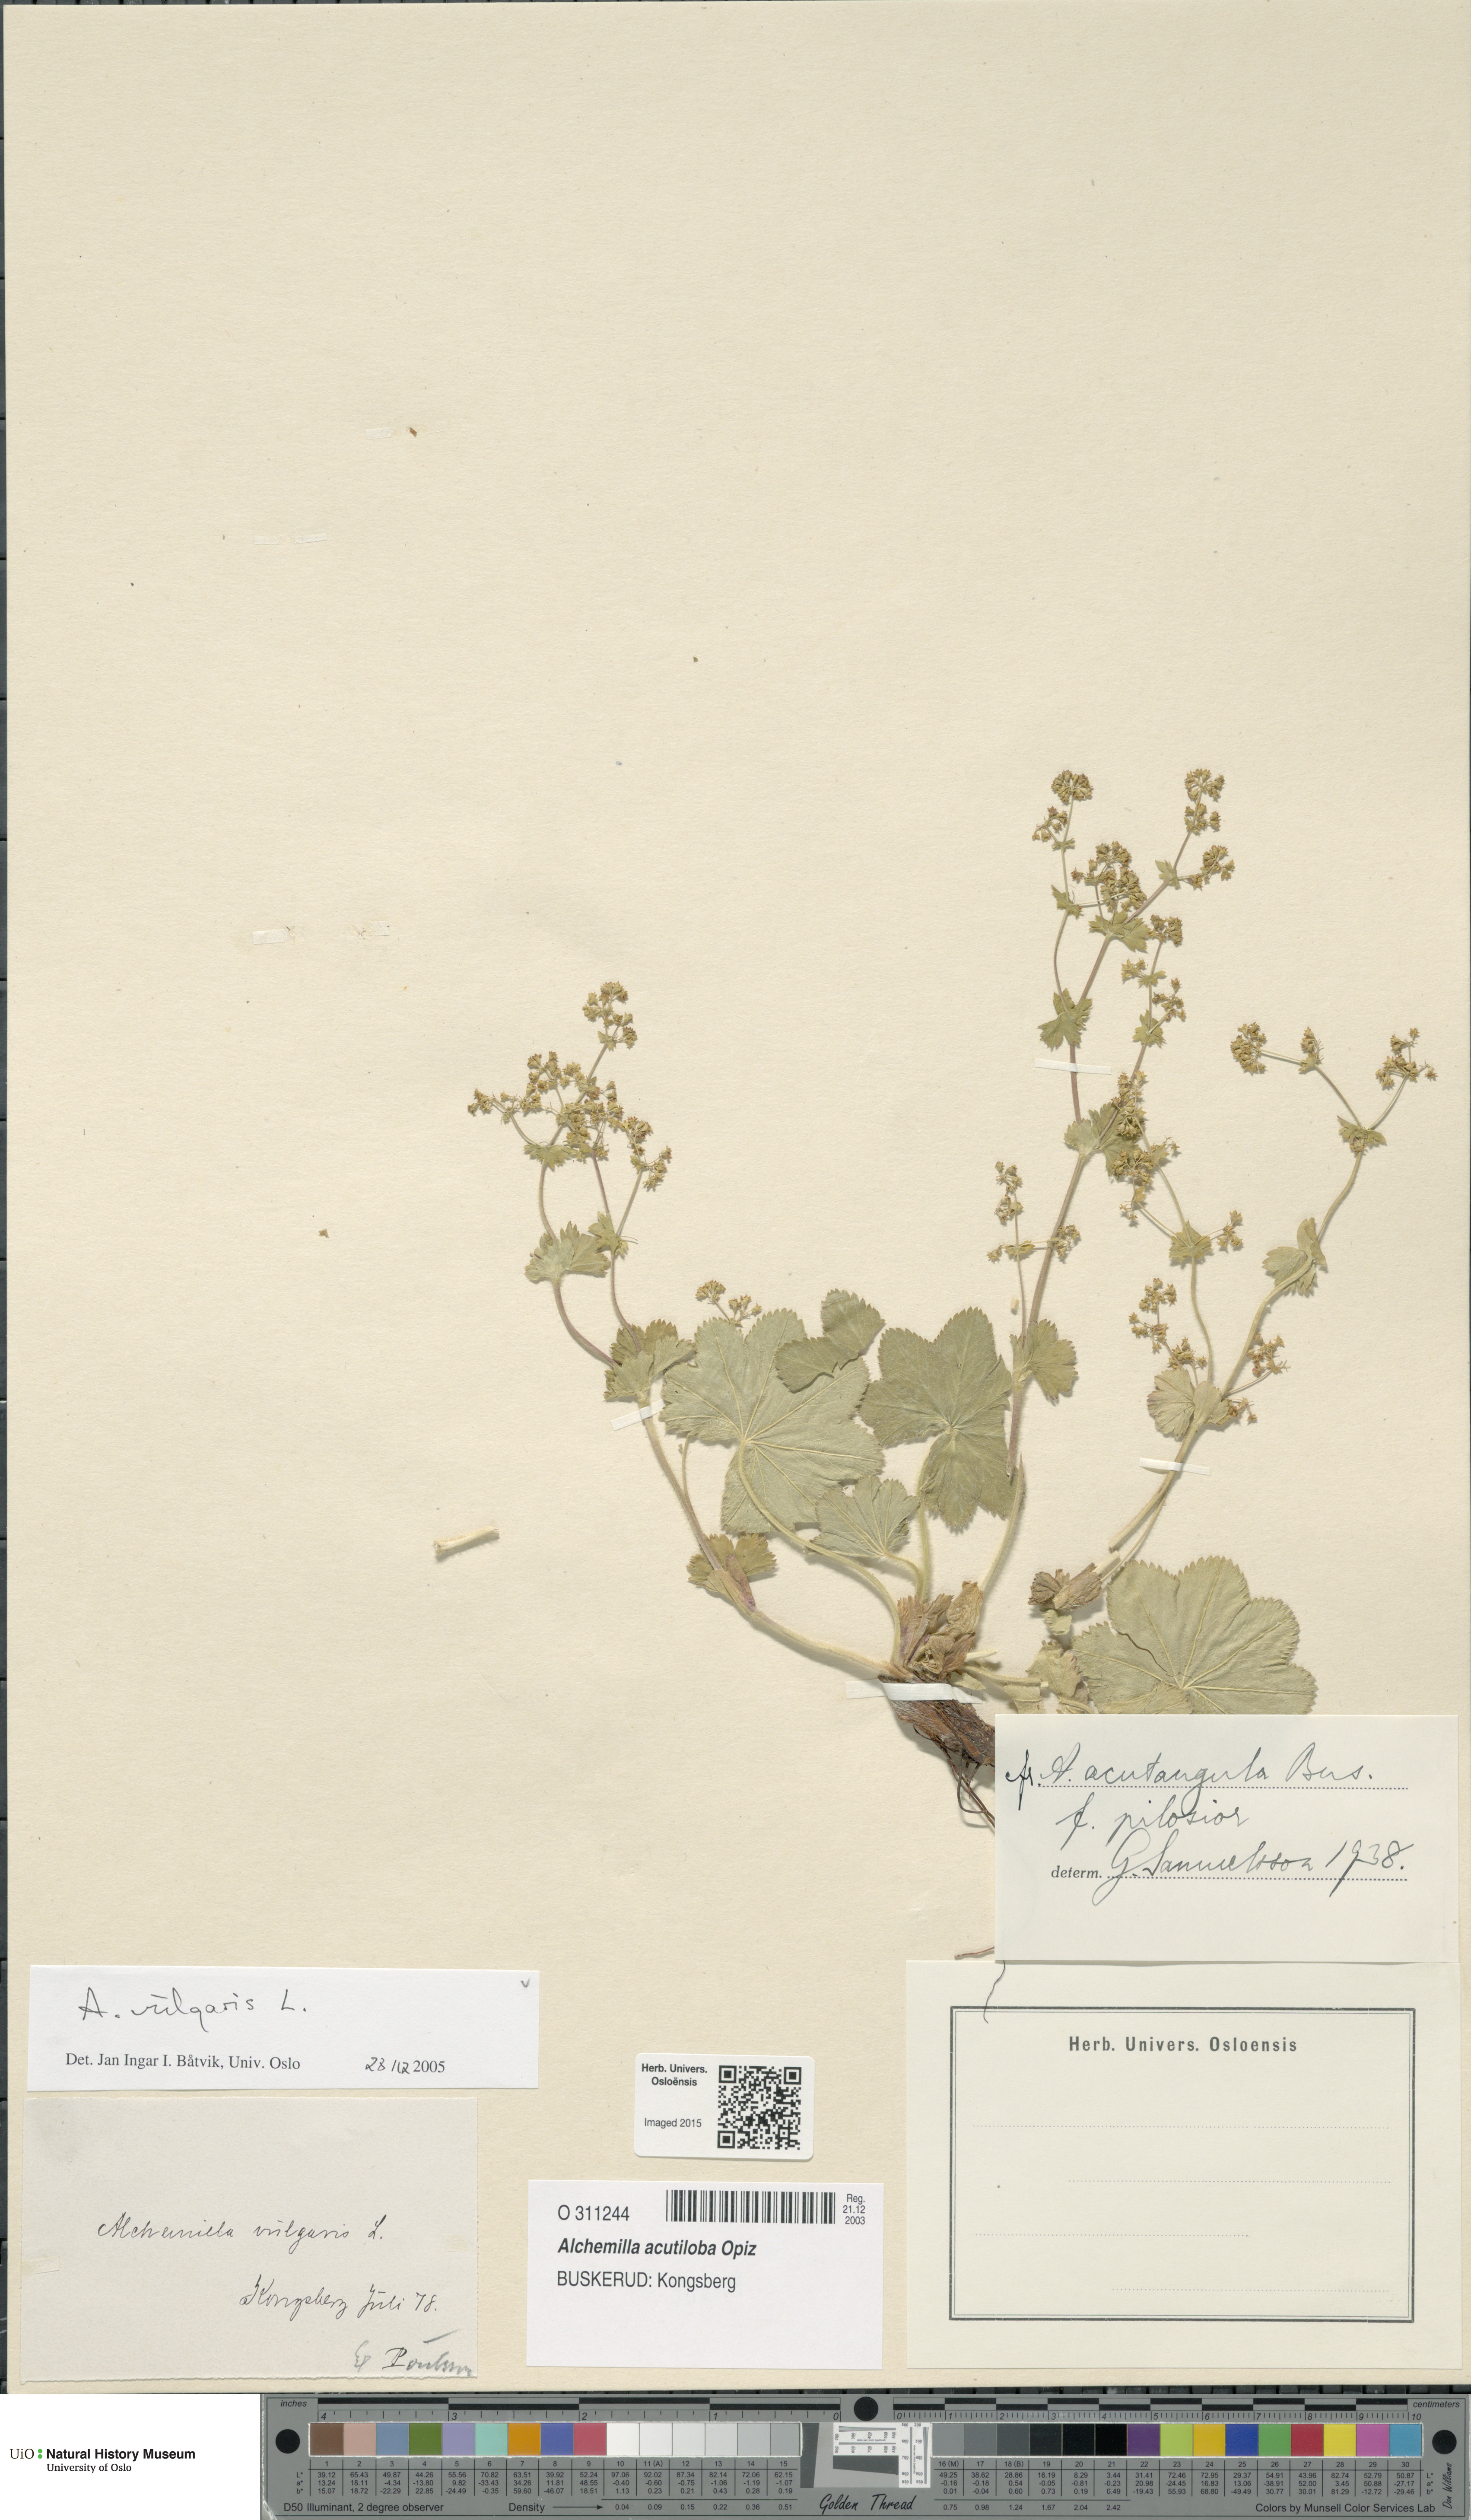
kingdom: Plantae
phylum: Tracheophyta
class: Magnoliopsida
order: Rosales
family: Rosaceae
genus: Alchemilla
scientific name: Alchemilla vulgaris
